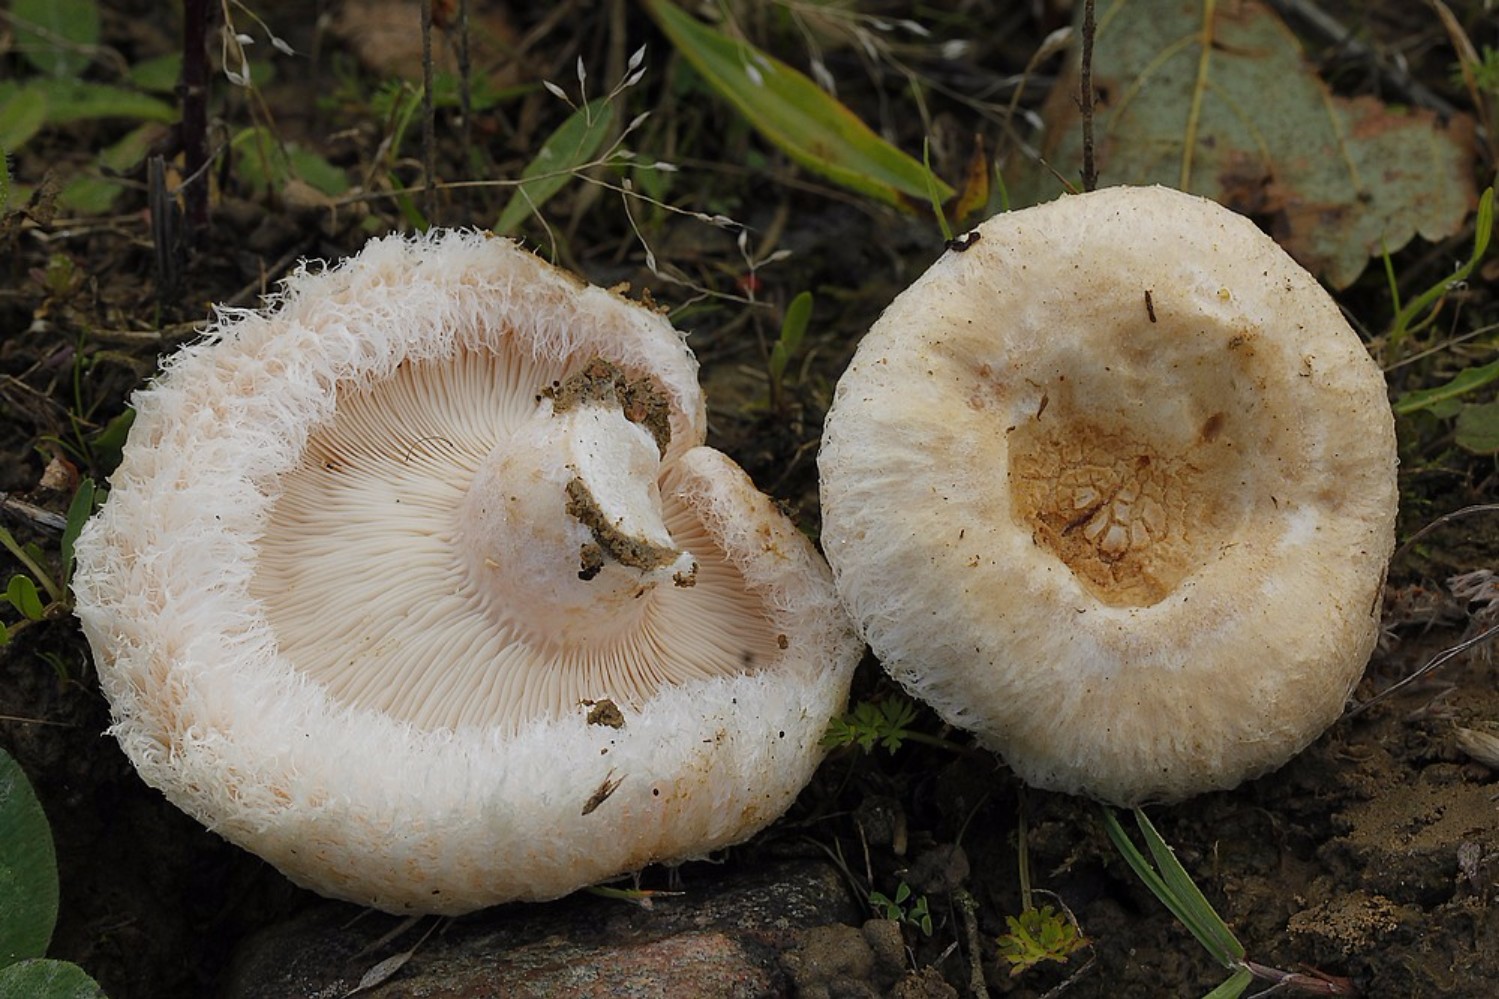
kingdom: Fungi
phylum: Basidiomycota
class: Agaricomycetes
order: Russulales
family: Russulaceae
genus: Lactarius
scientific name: Lactarius pubescens
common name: dunet mælkehat
